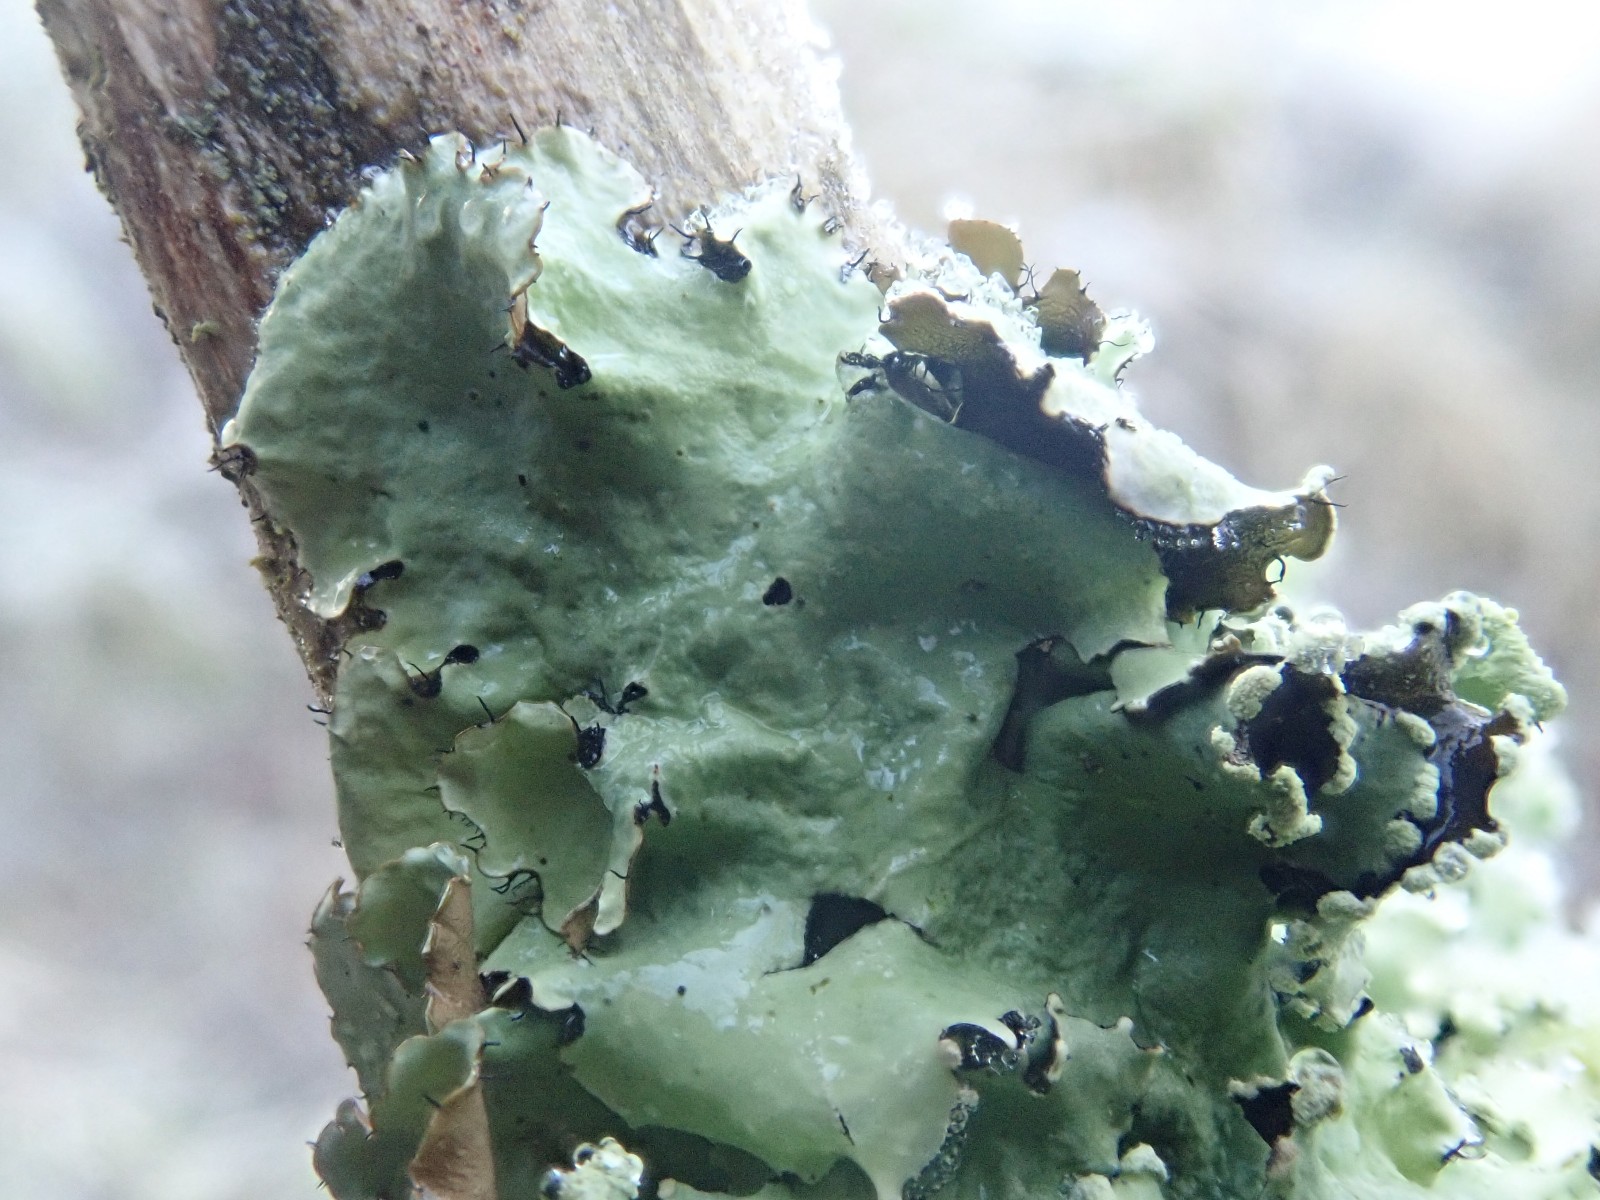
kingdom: Fungi
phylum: Ascomycota
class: Lecanoromycetes
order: Lecanorales
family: Parmeliaceae
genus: Parmotrema
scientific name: Parmotrema perlatum
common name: trådet skållav
